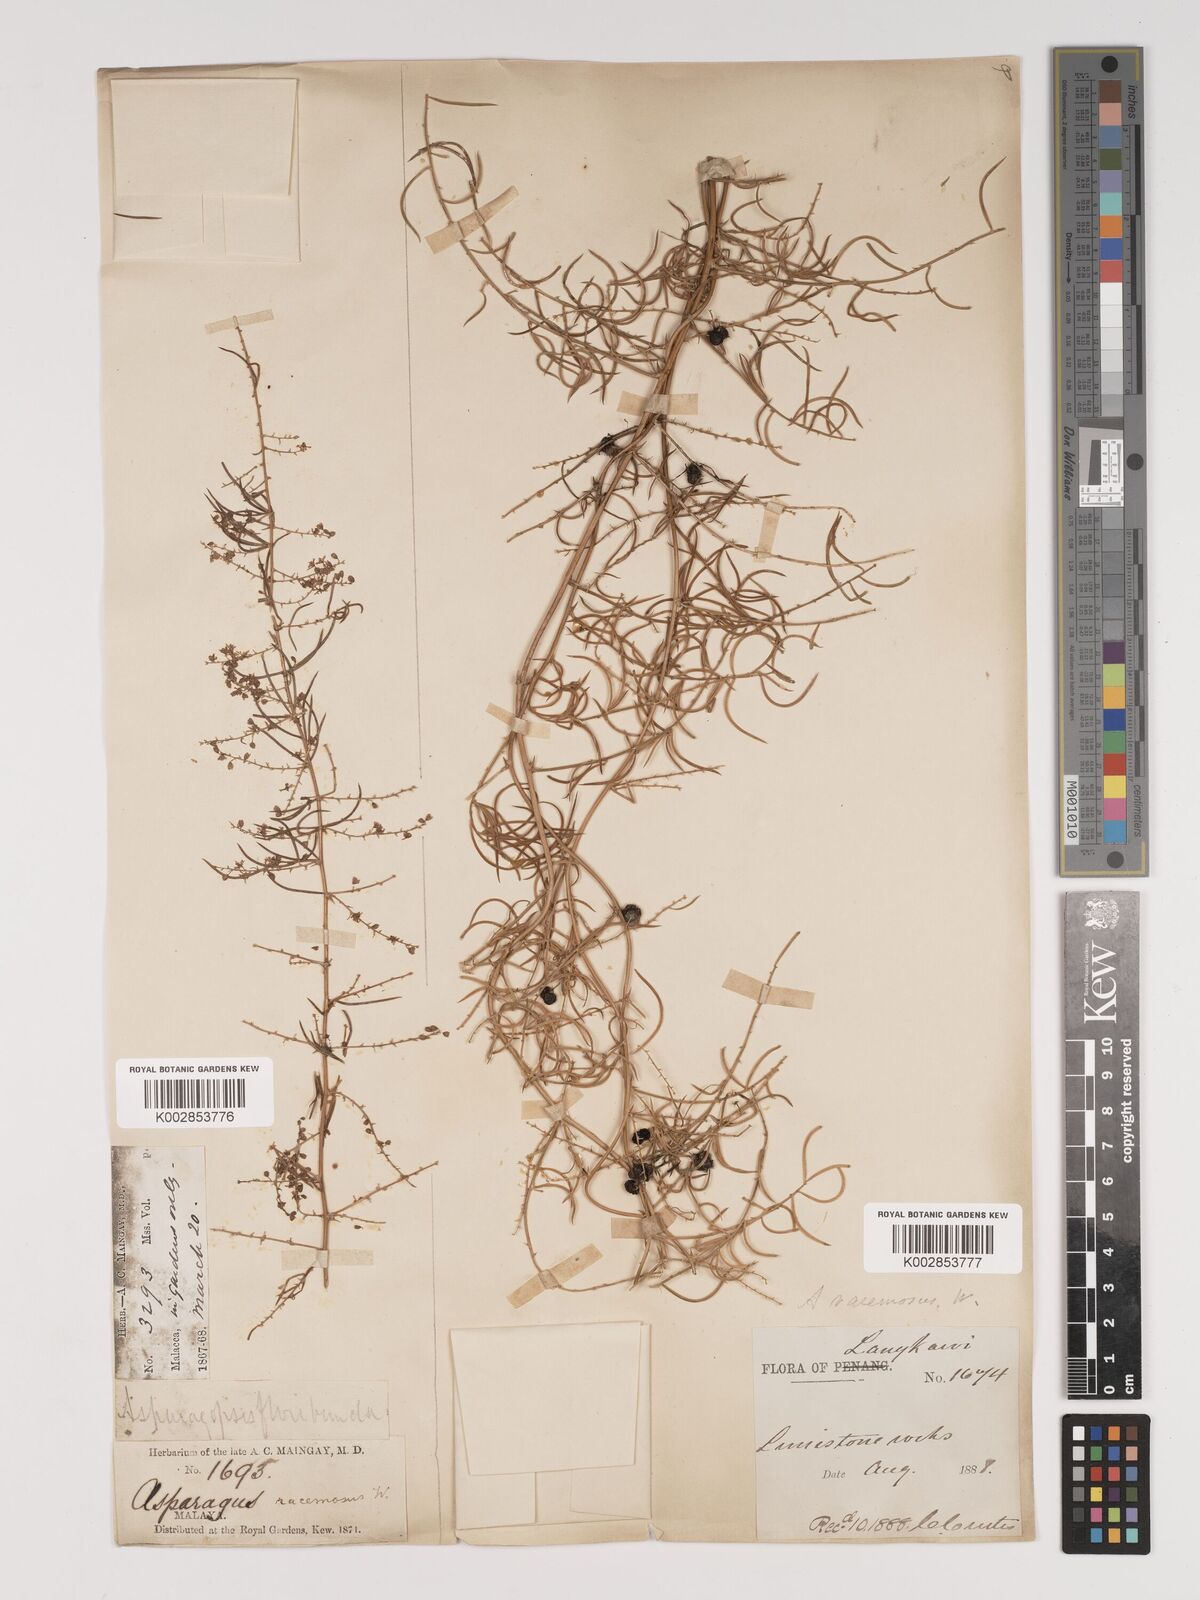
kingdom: Plantae
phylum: Tracheophyta
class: Liliopsida
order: Asparagales
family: Asparagaceae
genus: Asparagus
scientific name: Asparagus racemosus
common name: Asparagus-fern
